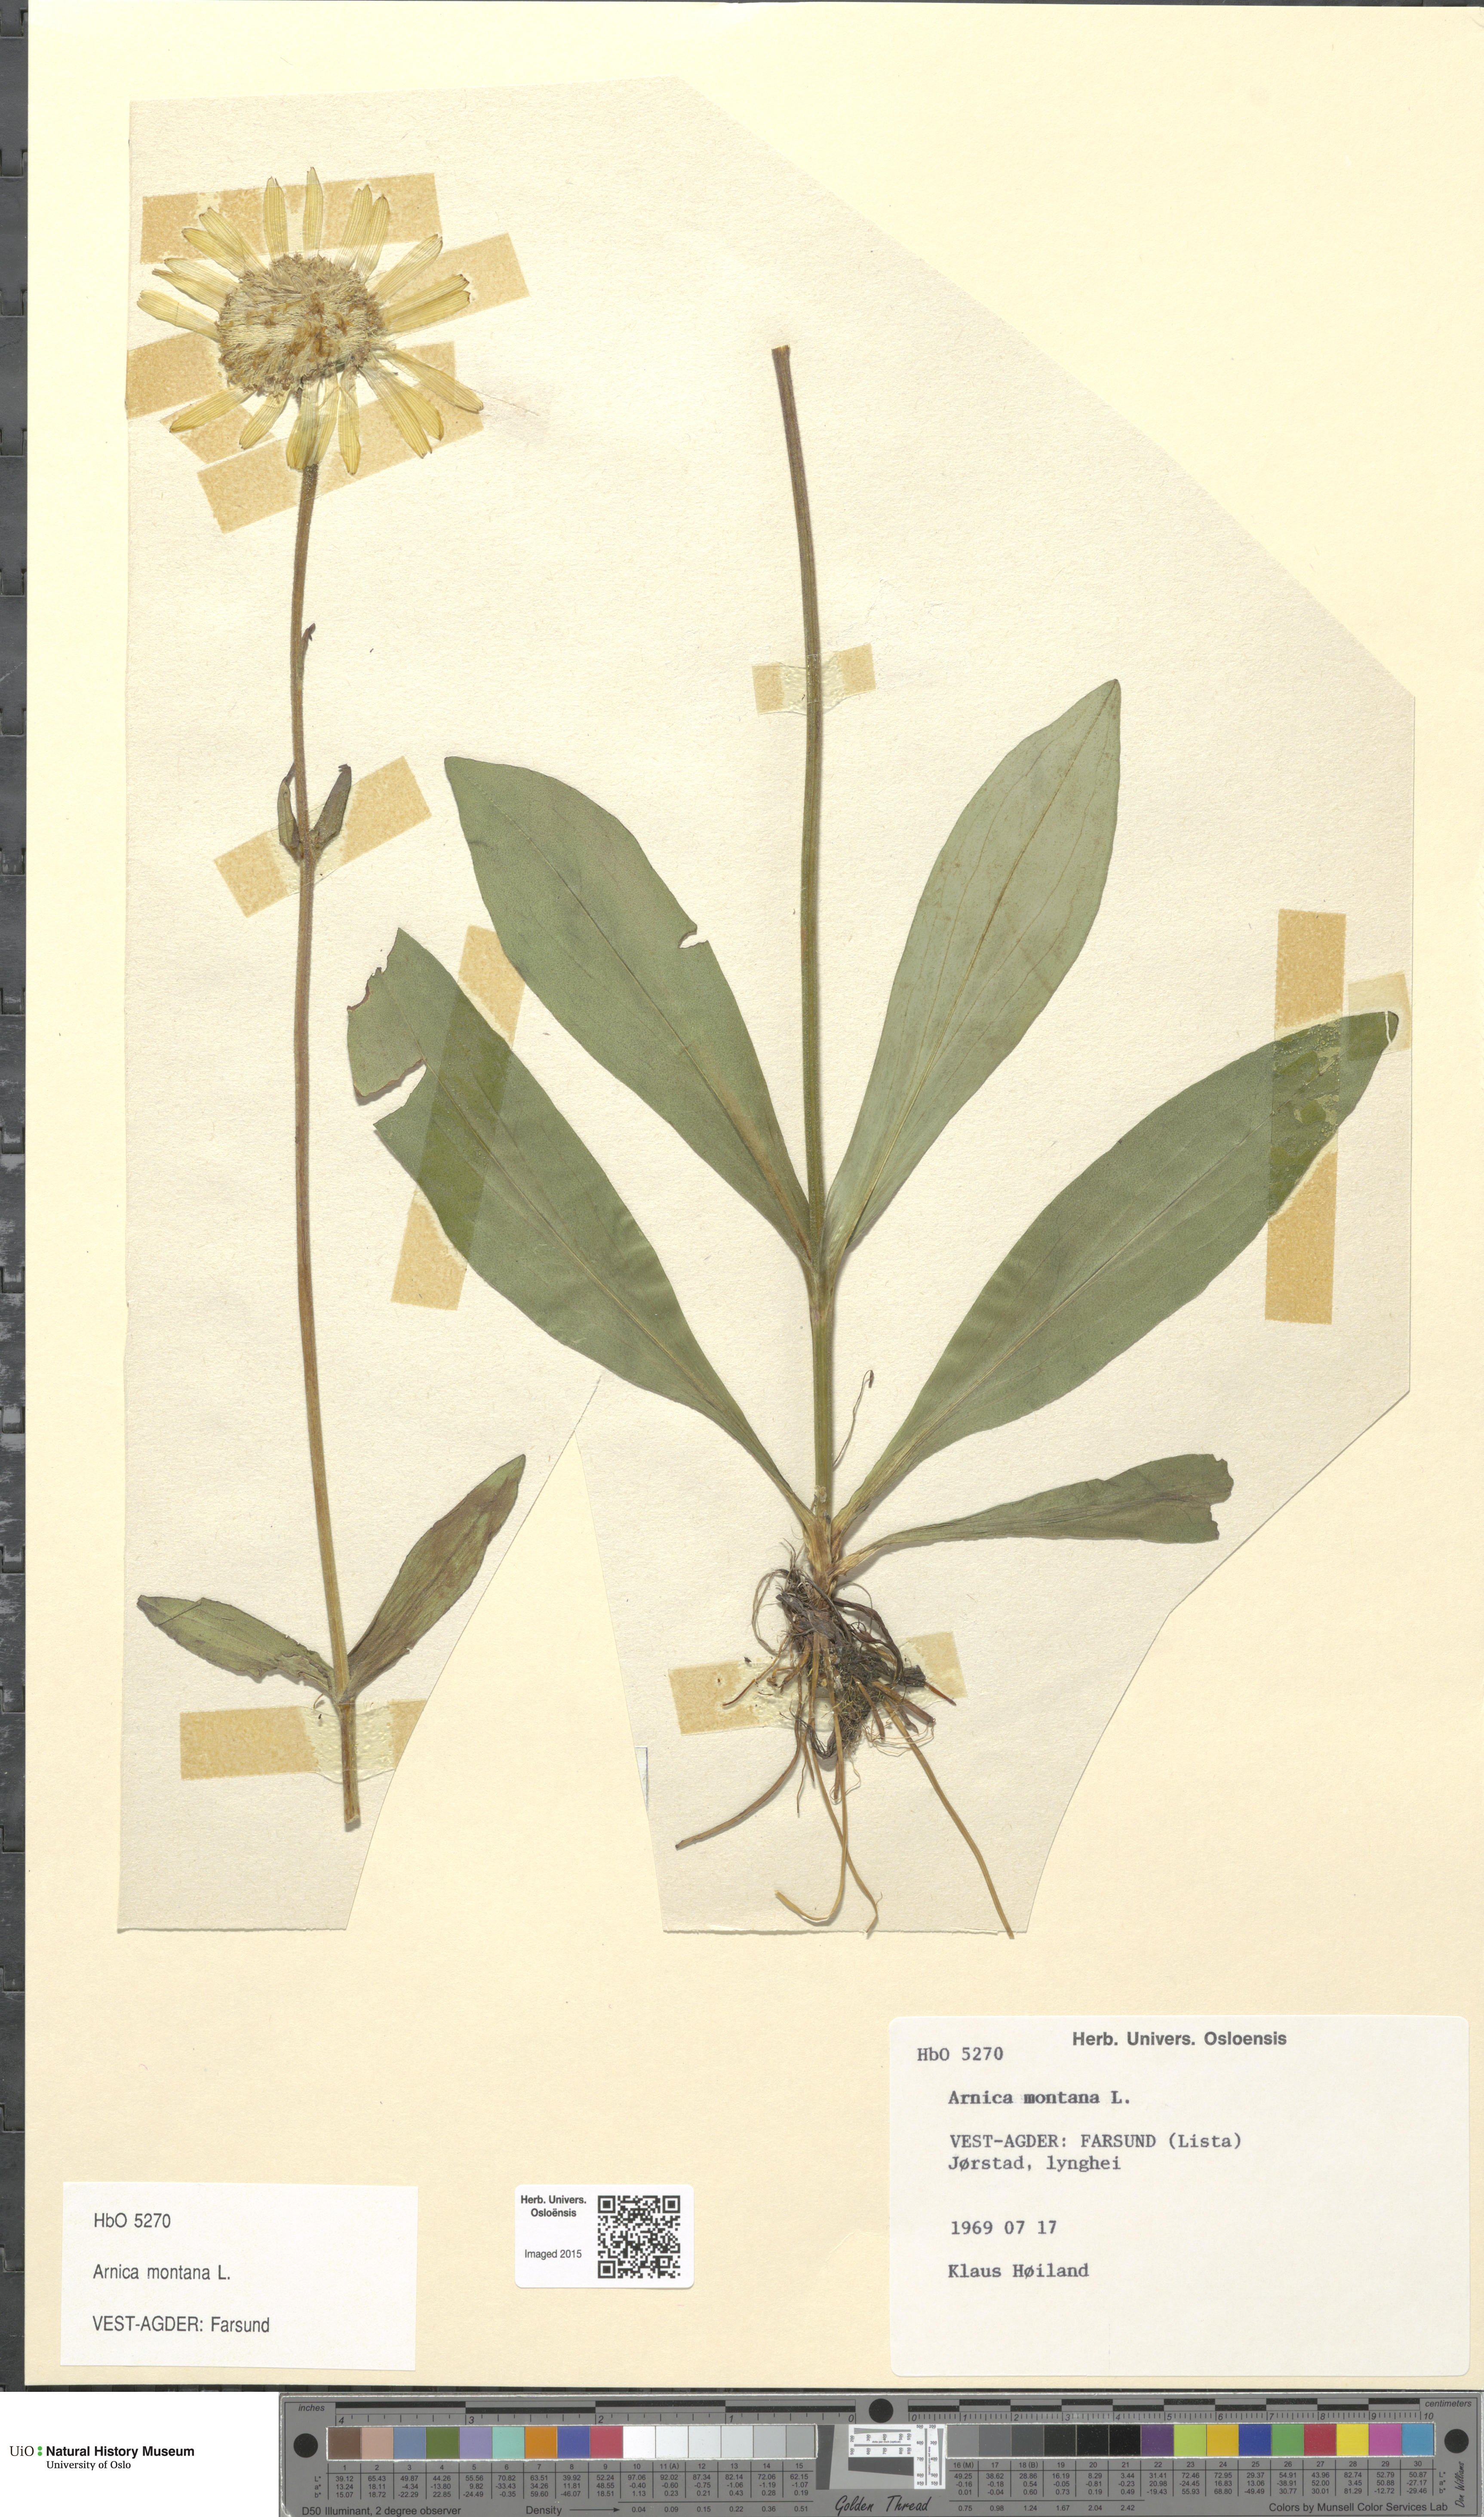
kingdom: Plantae
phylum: Tracheophyta
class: Magnoliopsida
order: Asterales
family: Asteraceae
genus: Arnica
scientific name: Arnica montana
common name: Leopard's bane
